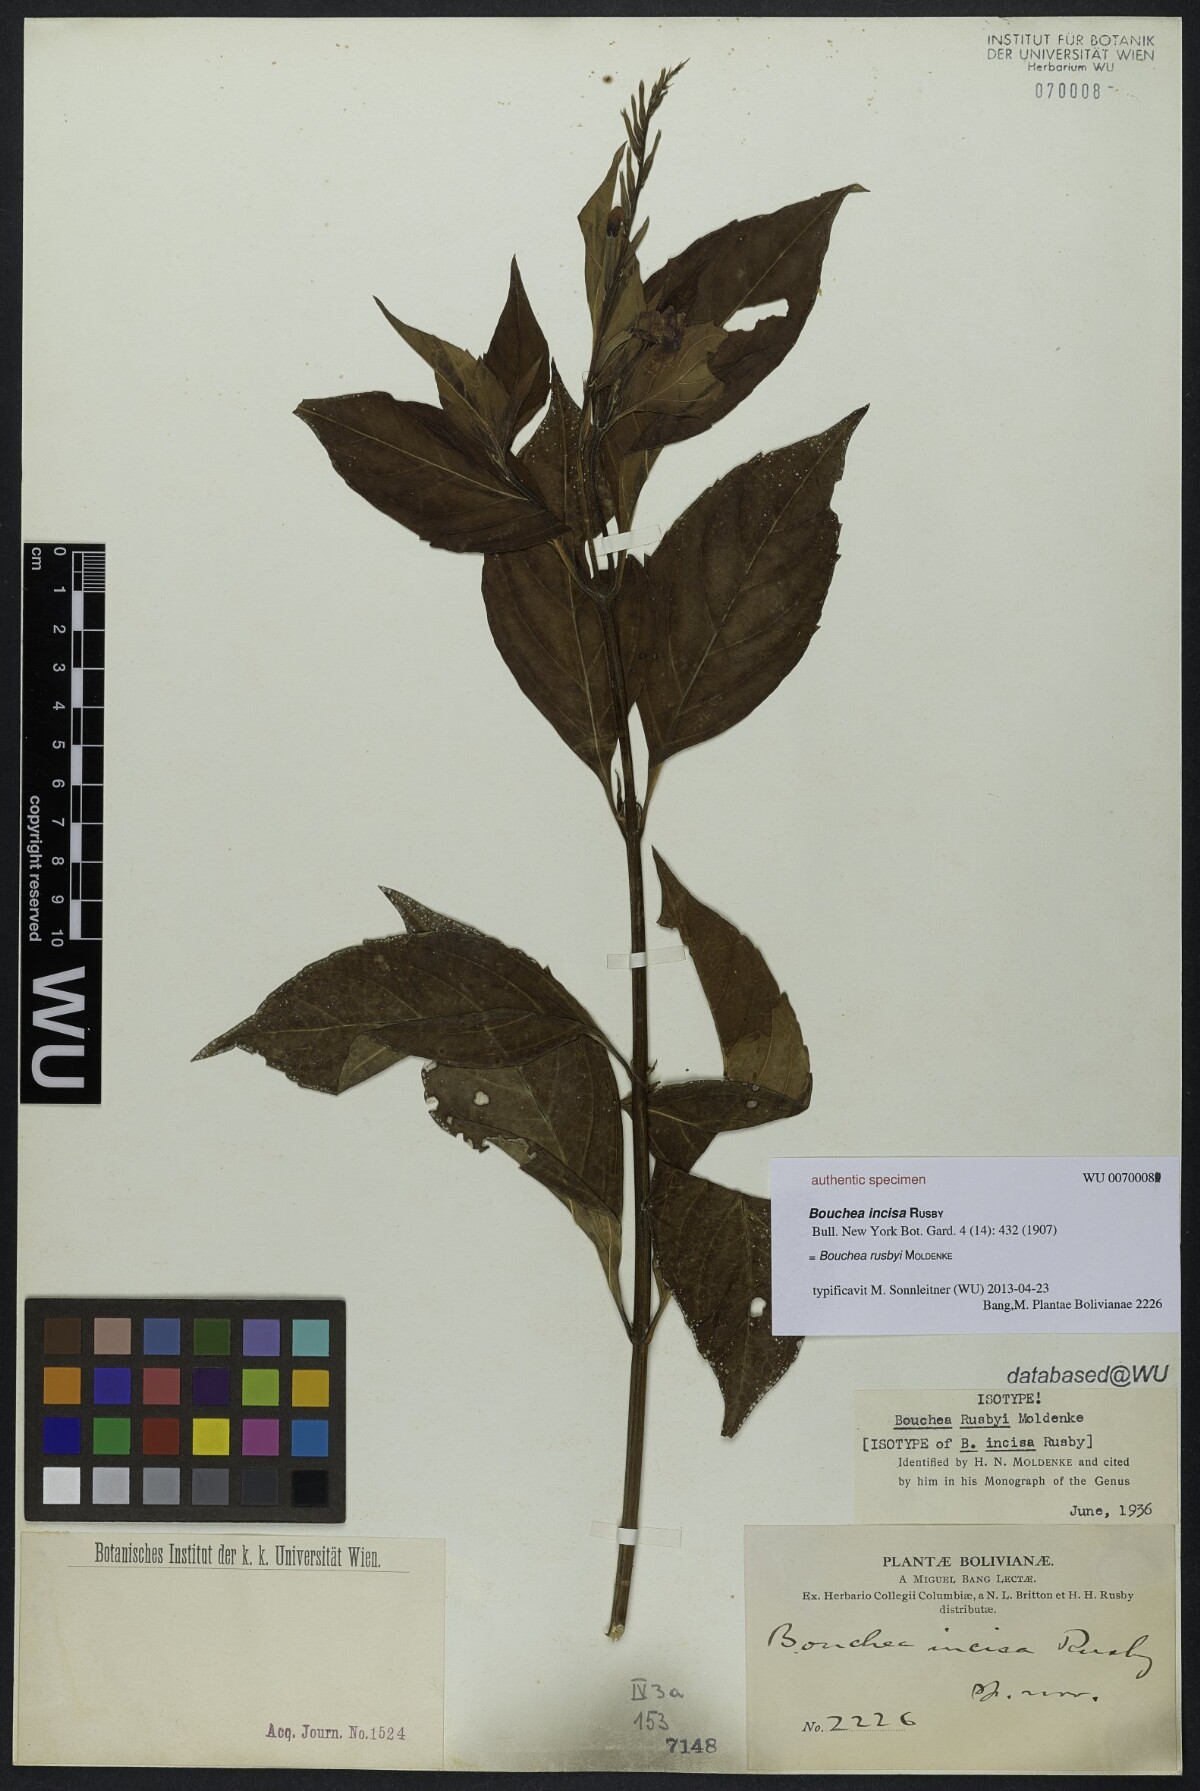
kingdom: Plantae
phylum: Tracheophyta
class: Magnoliopsida
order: Lamiales
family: Verbenaceae
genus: Bouchea
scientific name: Bouchea rusbyi
